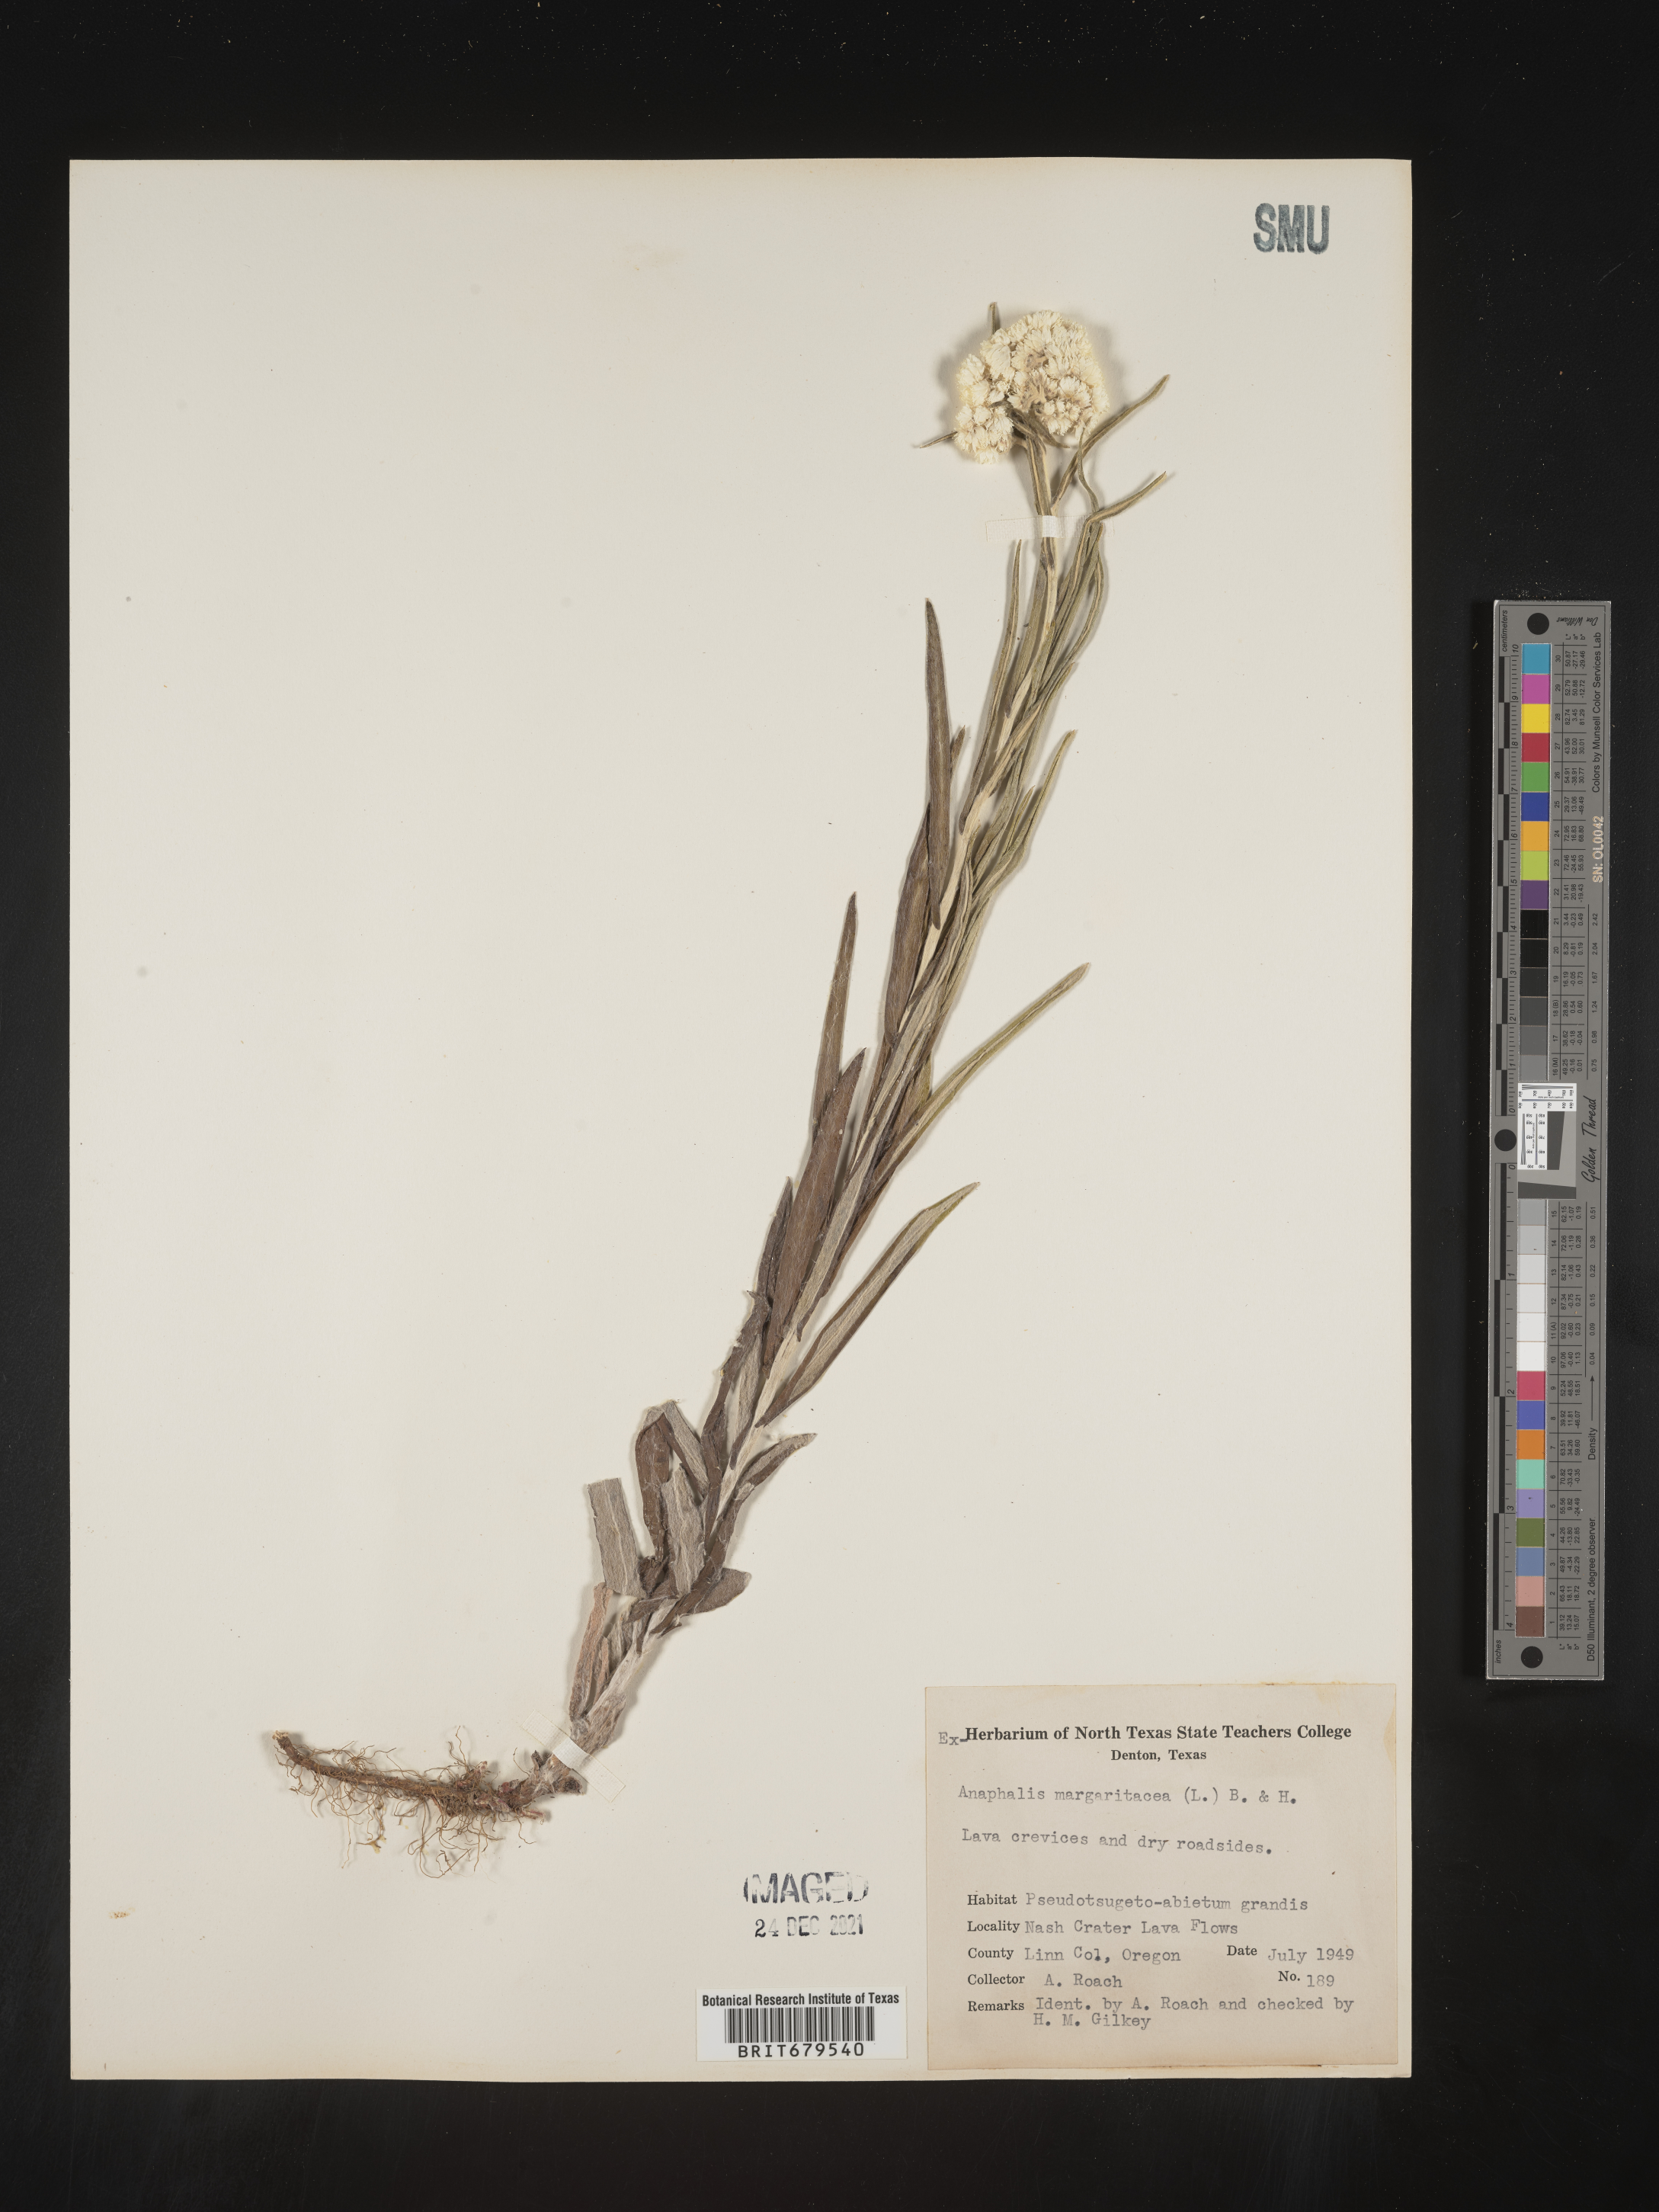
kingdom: Plantae
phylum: Tracheophyta
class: Magnoliopsida
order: Asterales
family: Asteraceae
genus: Anaphalis
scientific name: Anaphalis margaritacea
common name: Pearly everlasting
